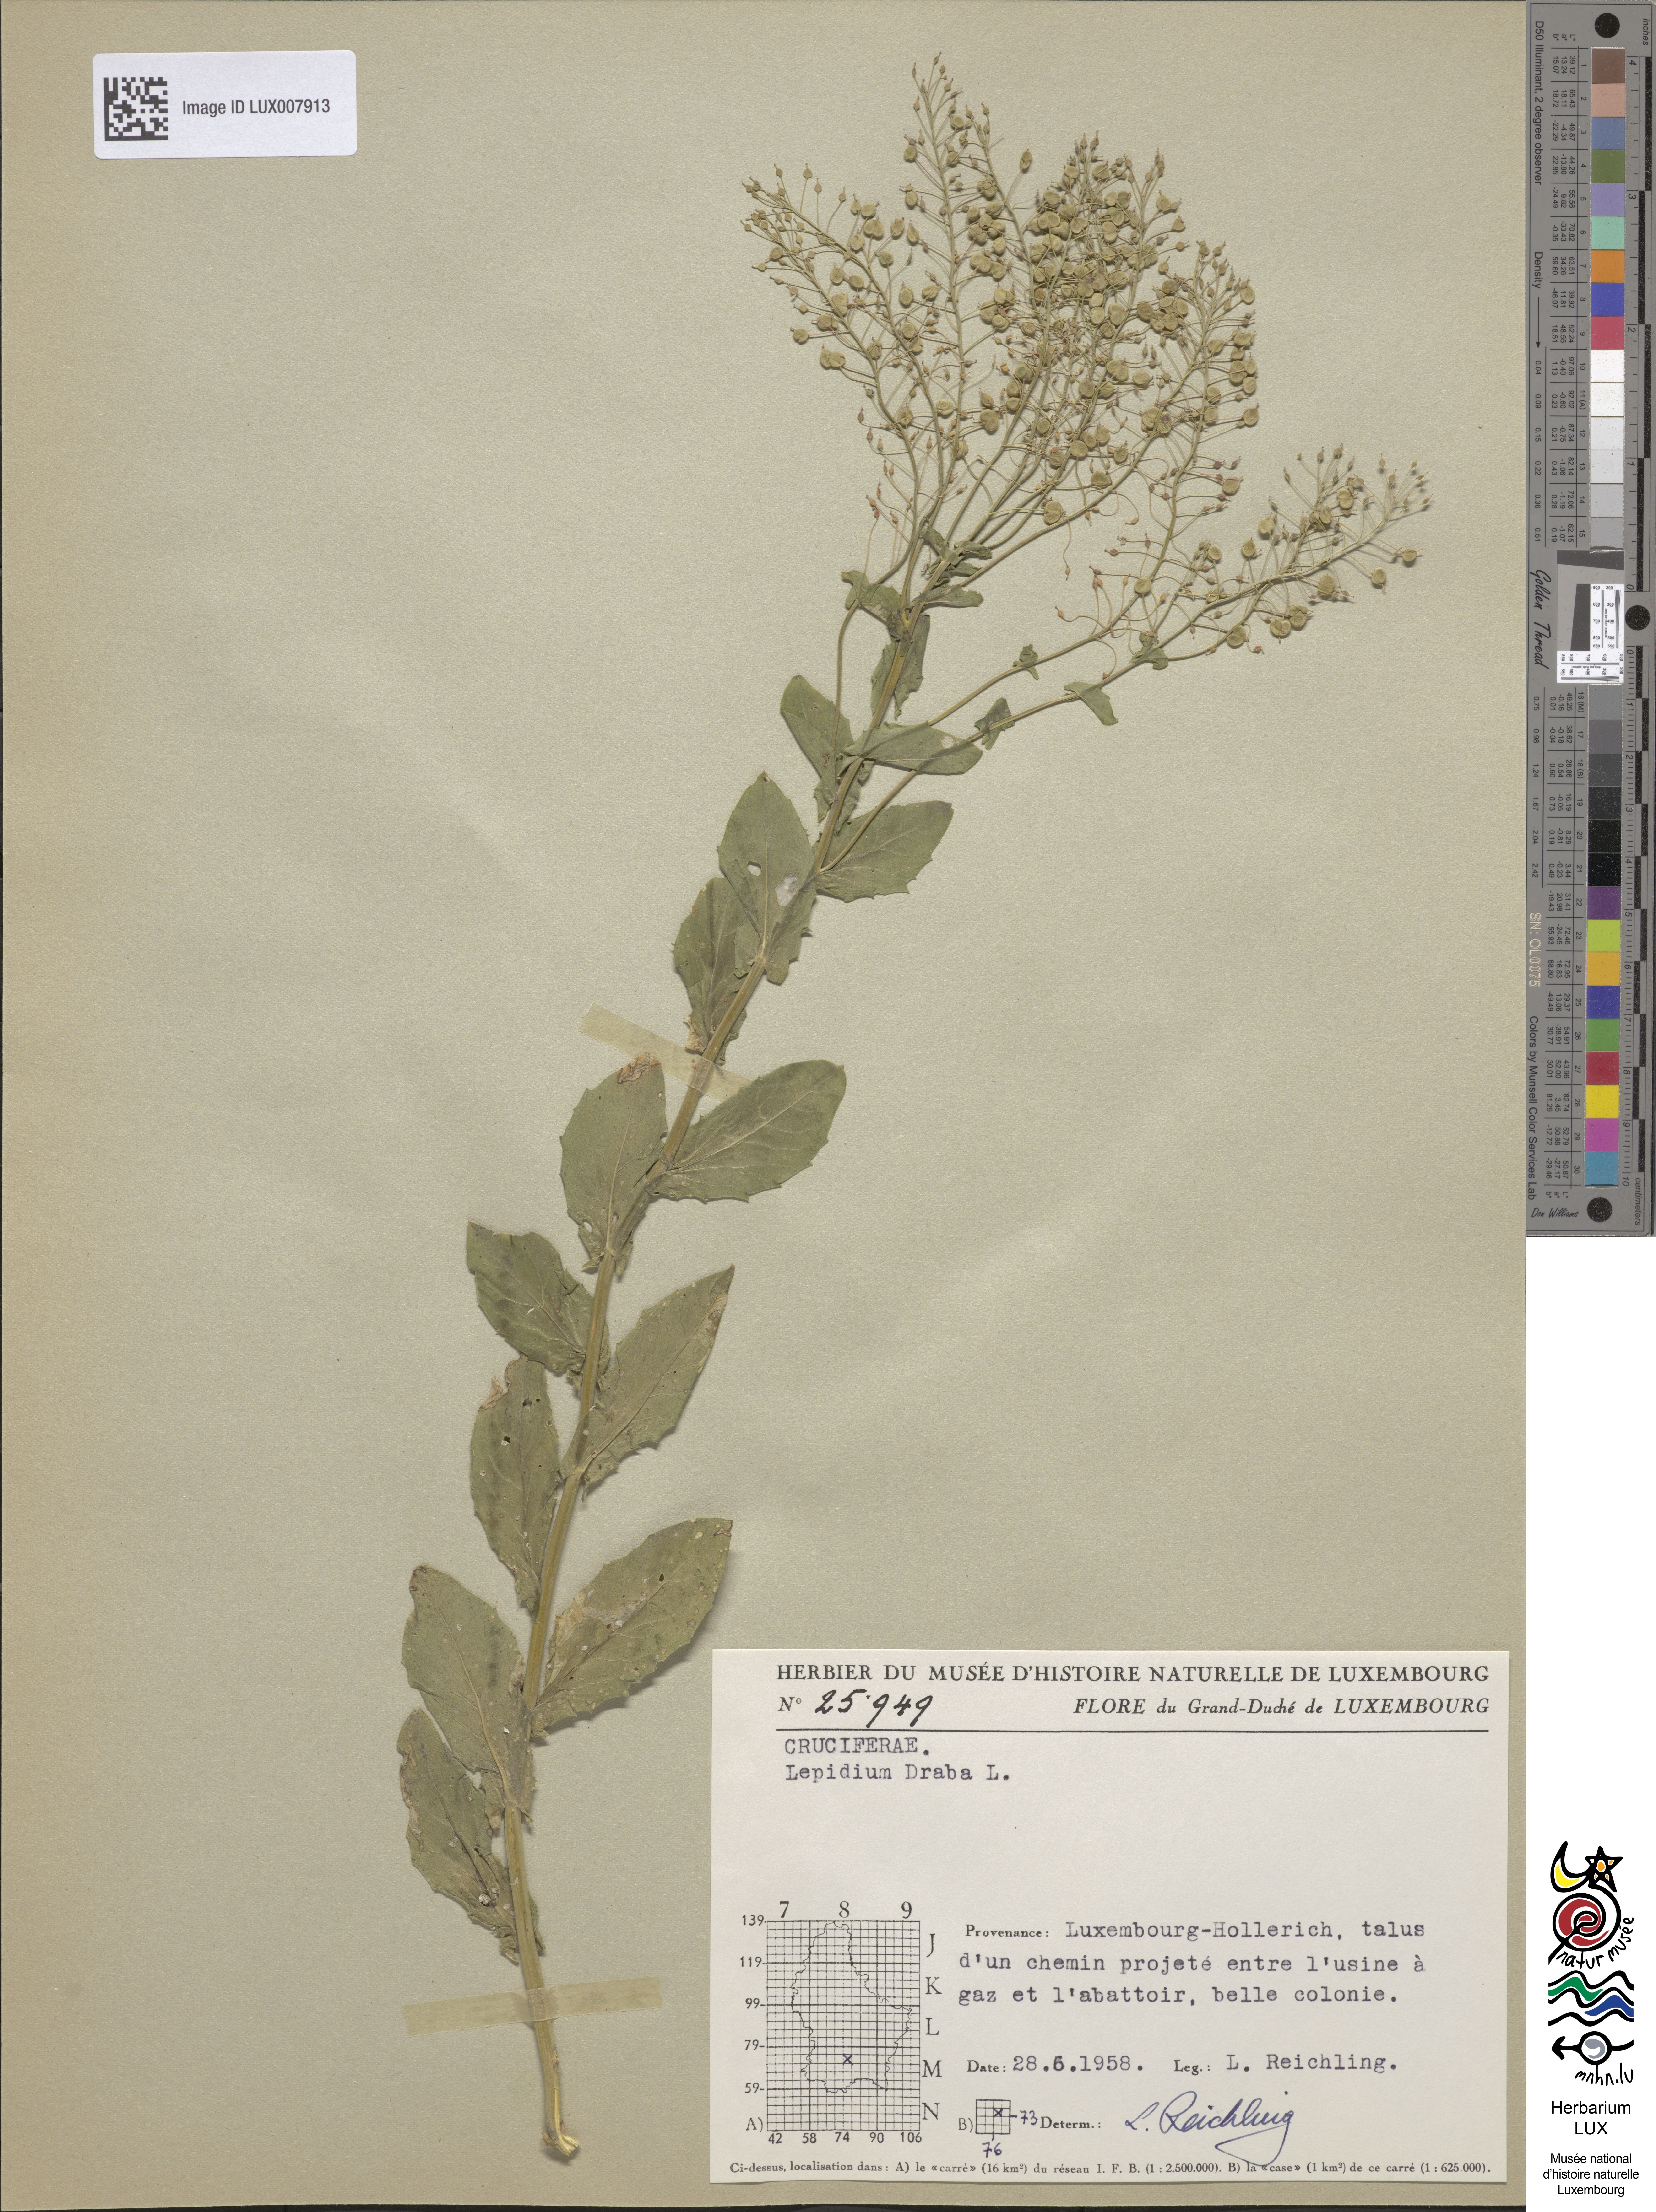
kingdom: Plantae
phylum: Tracheophyta
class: Magnoliopsida
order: Brassicales
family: Brassicaceae
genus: Lepidium
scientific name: Lepidium draba
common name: Hoary cress
